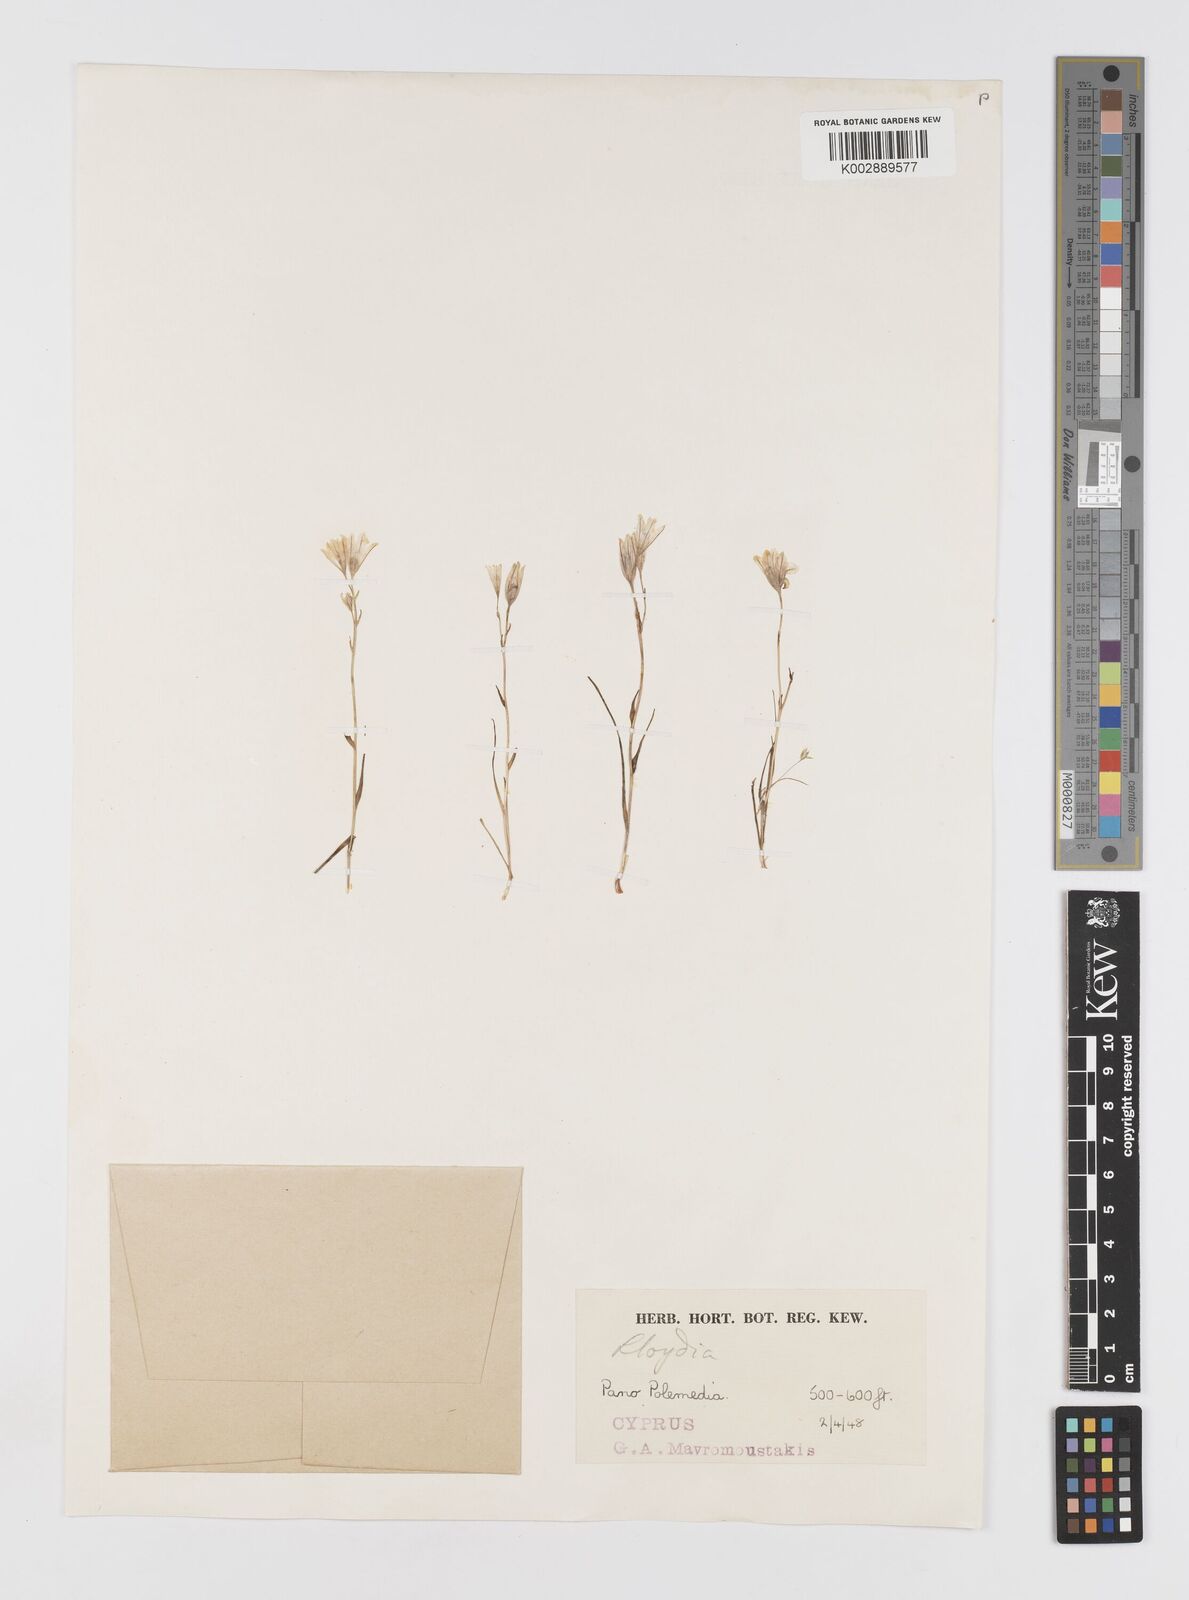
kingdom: Plantae
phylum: Tracheophyta
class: Liliopsida
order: Liliales
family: Liliaceae
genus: Gagea
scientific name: Gagea
